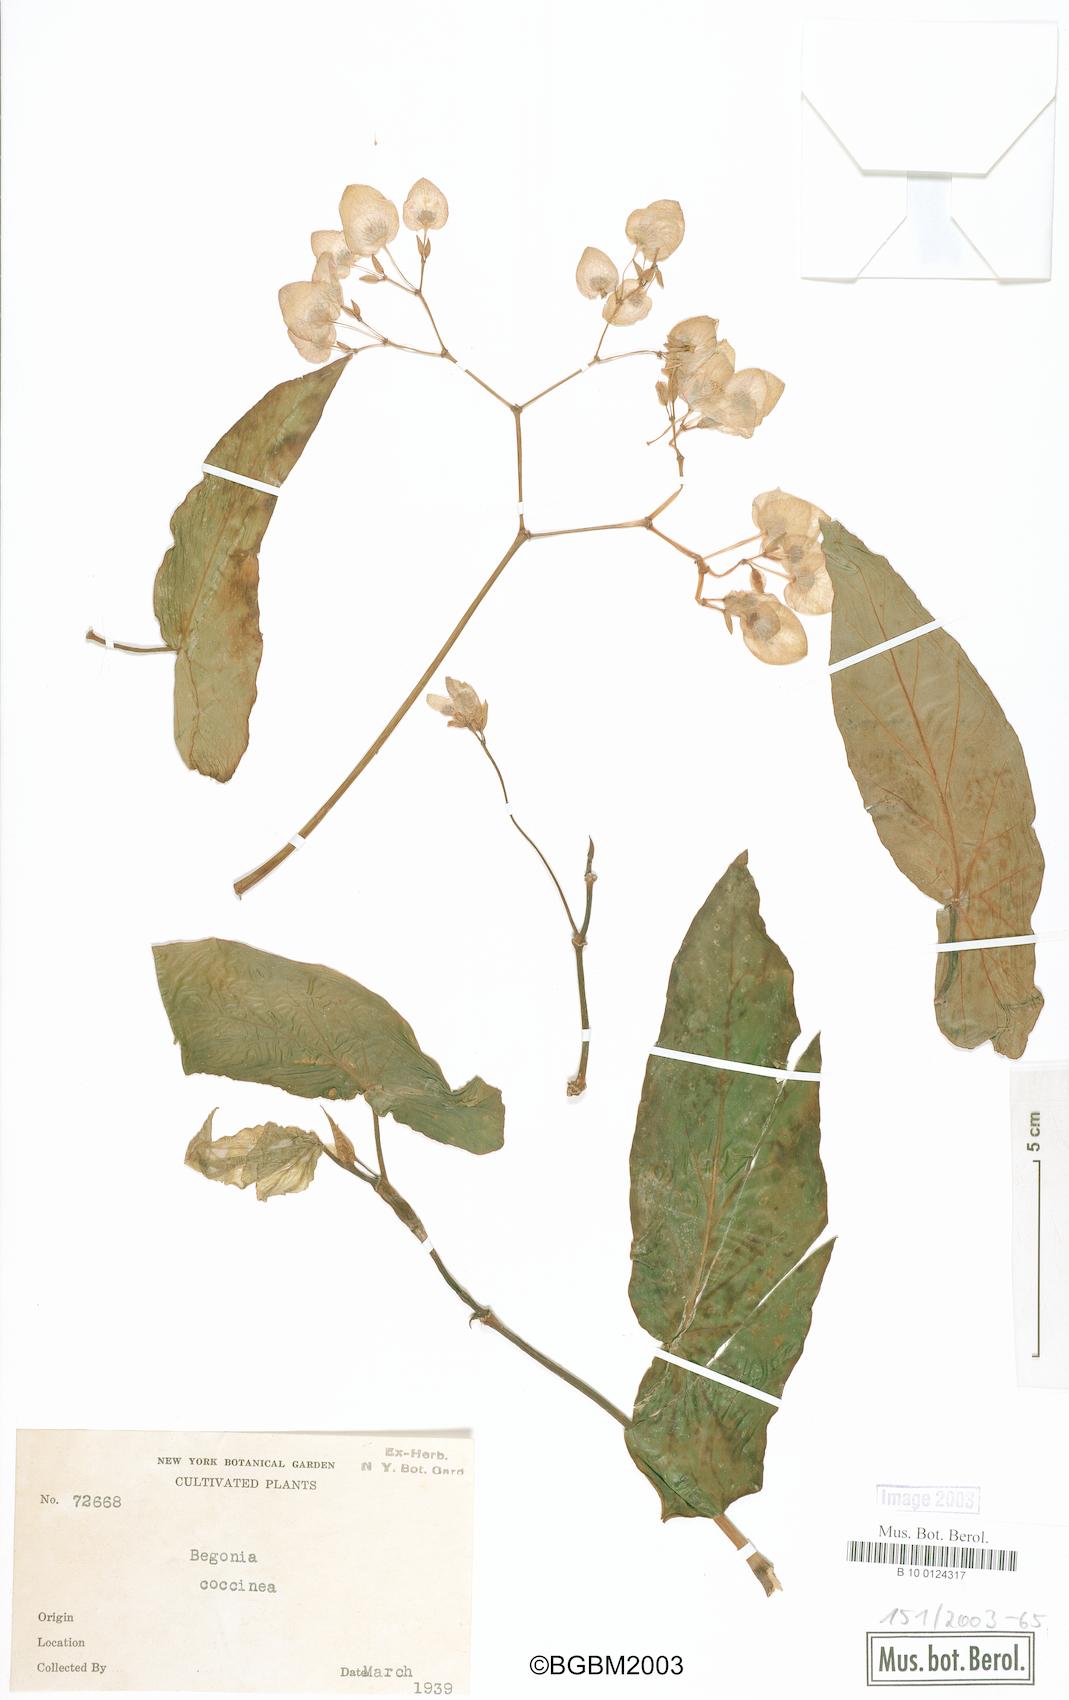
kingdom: Plantae
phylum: Tracheophyta
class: Magnoliopsida
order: Cucurbitales
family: Begoniaceae
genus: Begonia
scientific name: Begonia coccinea
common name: Angel-wing begonia
